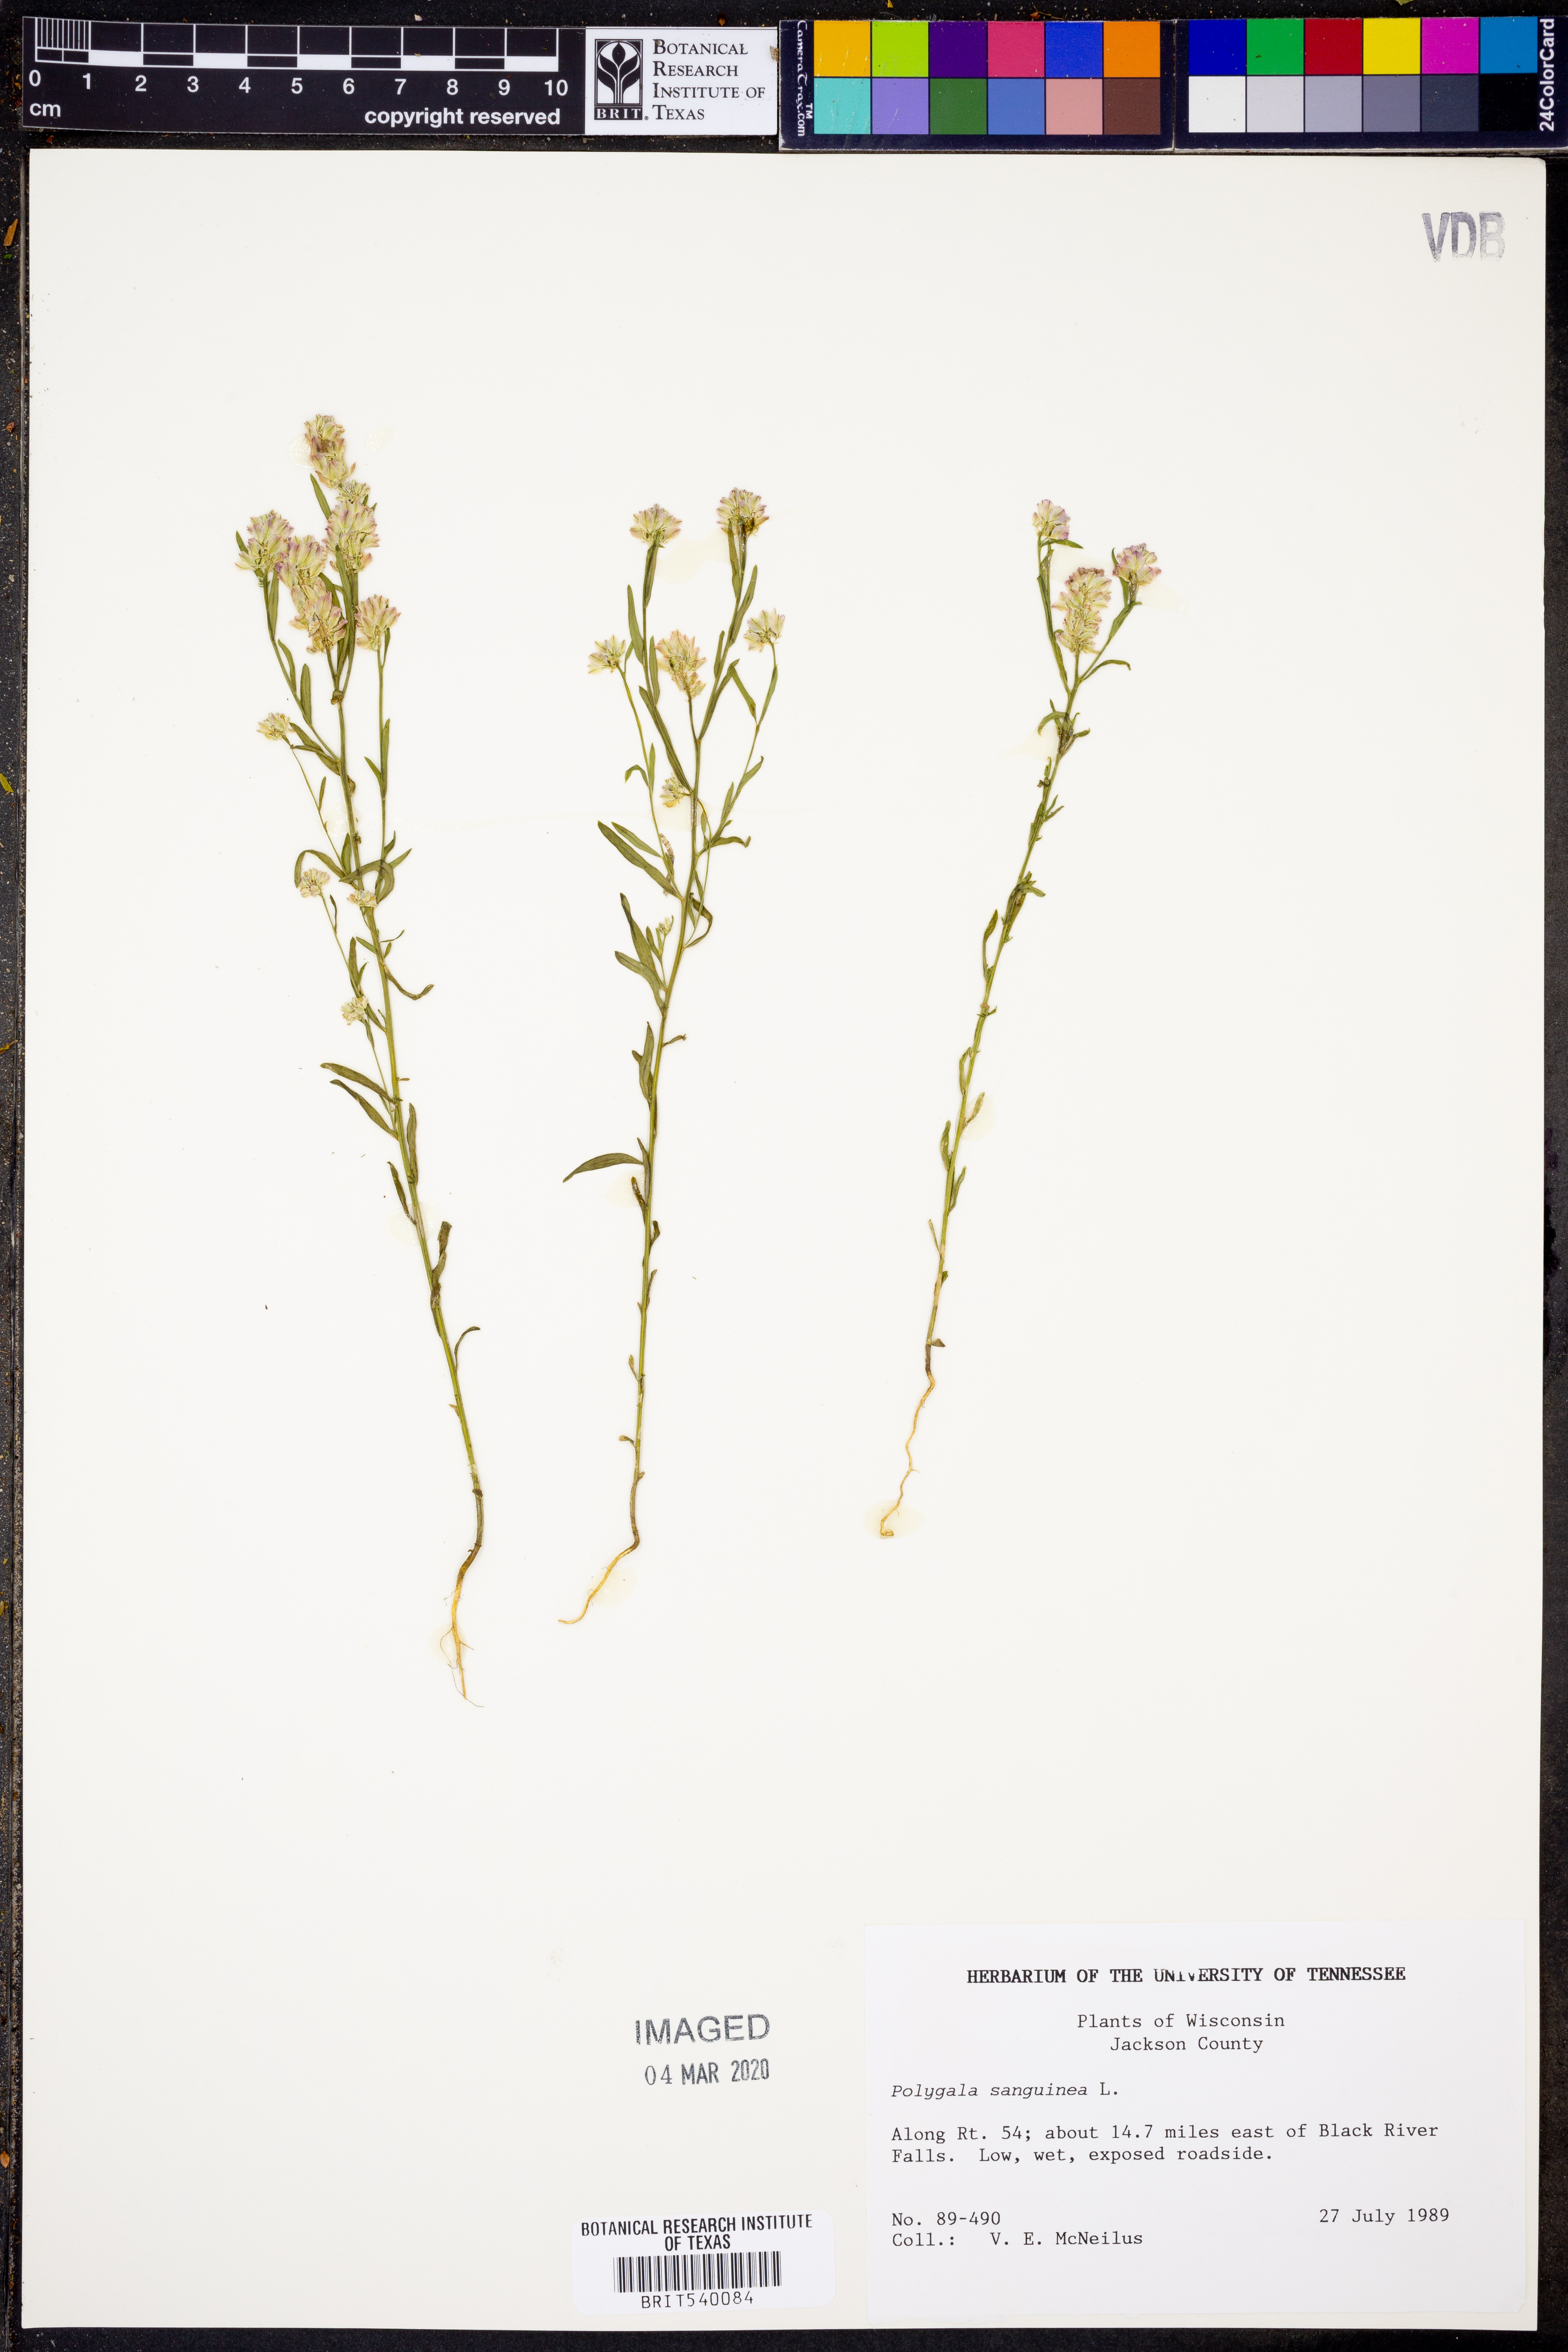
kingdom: Plantae
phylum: Tracheophyta
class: Magnoliopsida
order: Fabales
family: Polygalaceae
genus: Polygala
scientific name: Polygala sanguinea
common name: Blood milkwort
